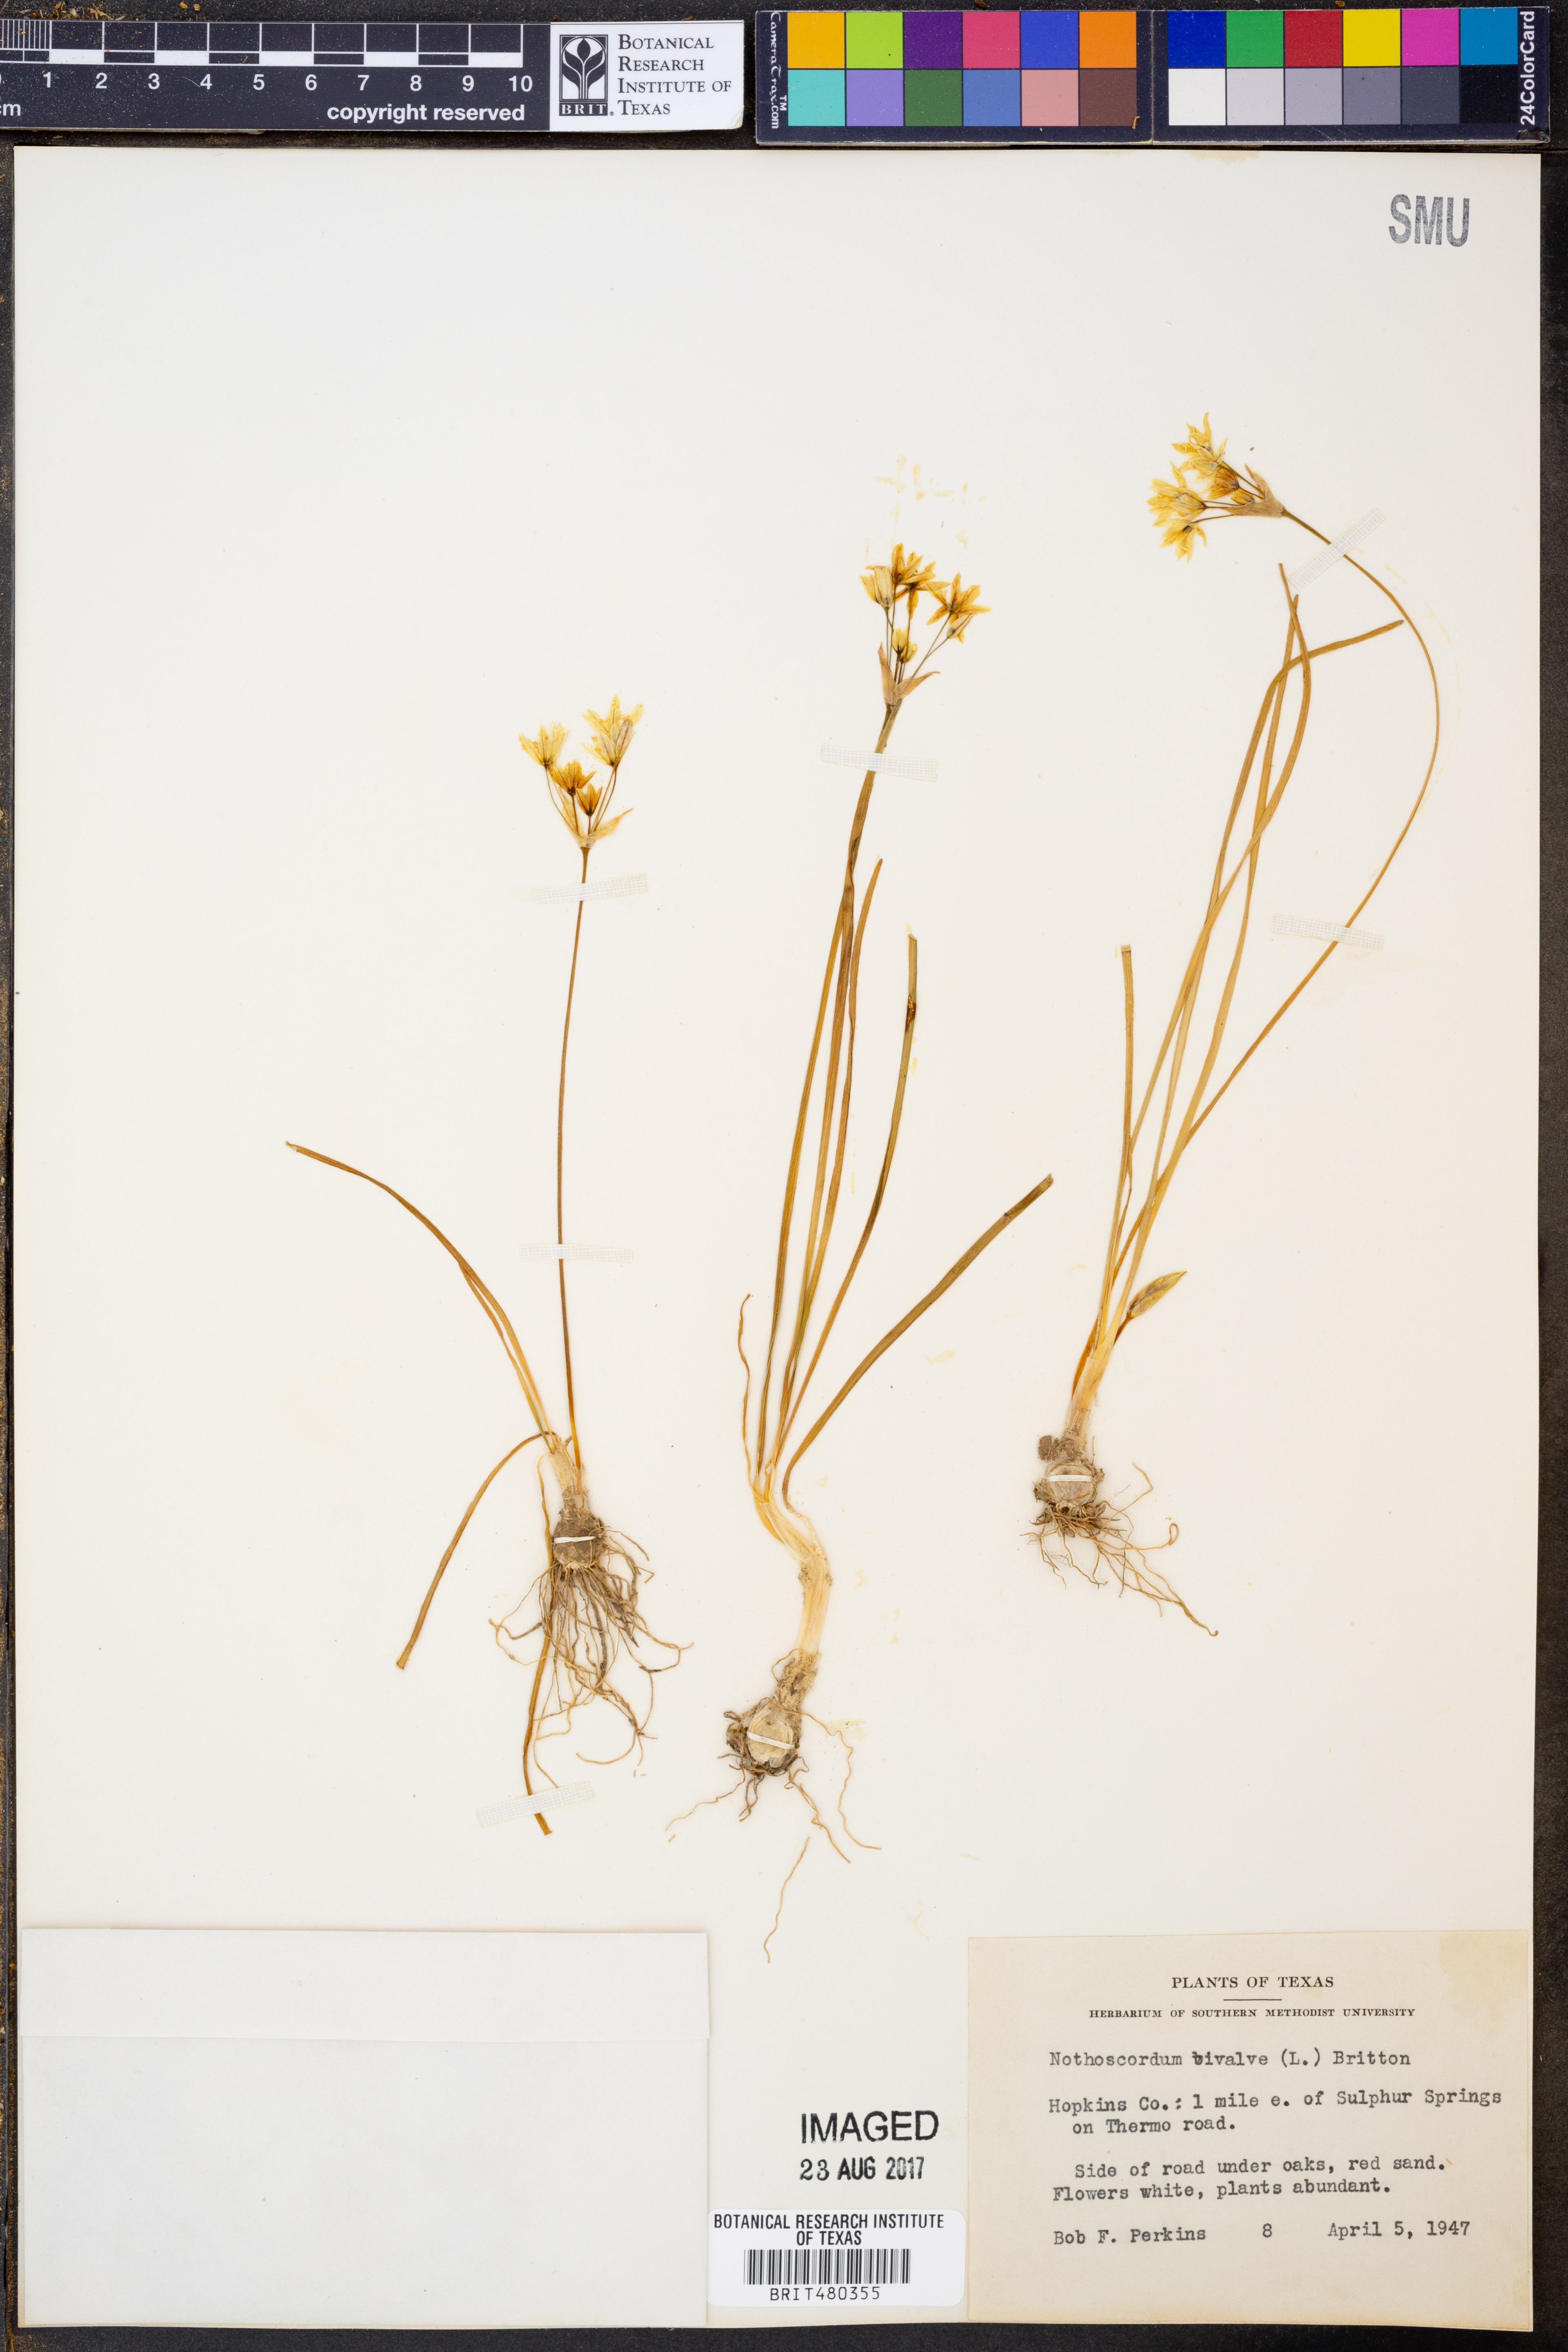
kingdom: Plantae
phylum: Tracheophyta
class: Liliopsida
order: Asparagales
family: Amaryllidaceae
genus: Nothoscordum
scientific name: Nothoscordum bivalve
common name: Crow-poison
